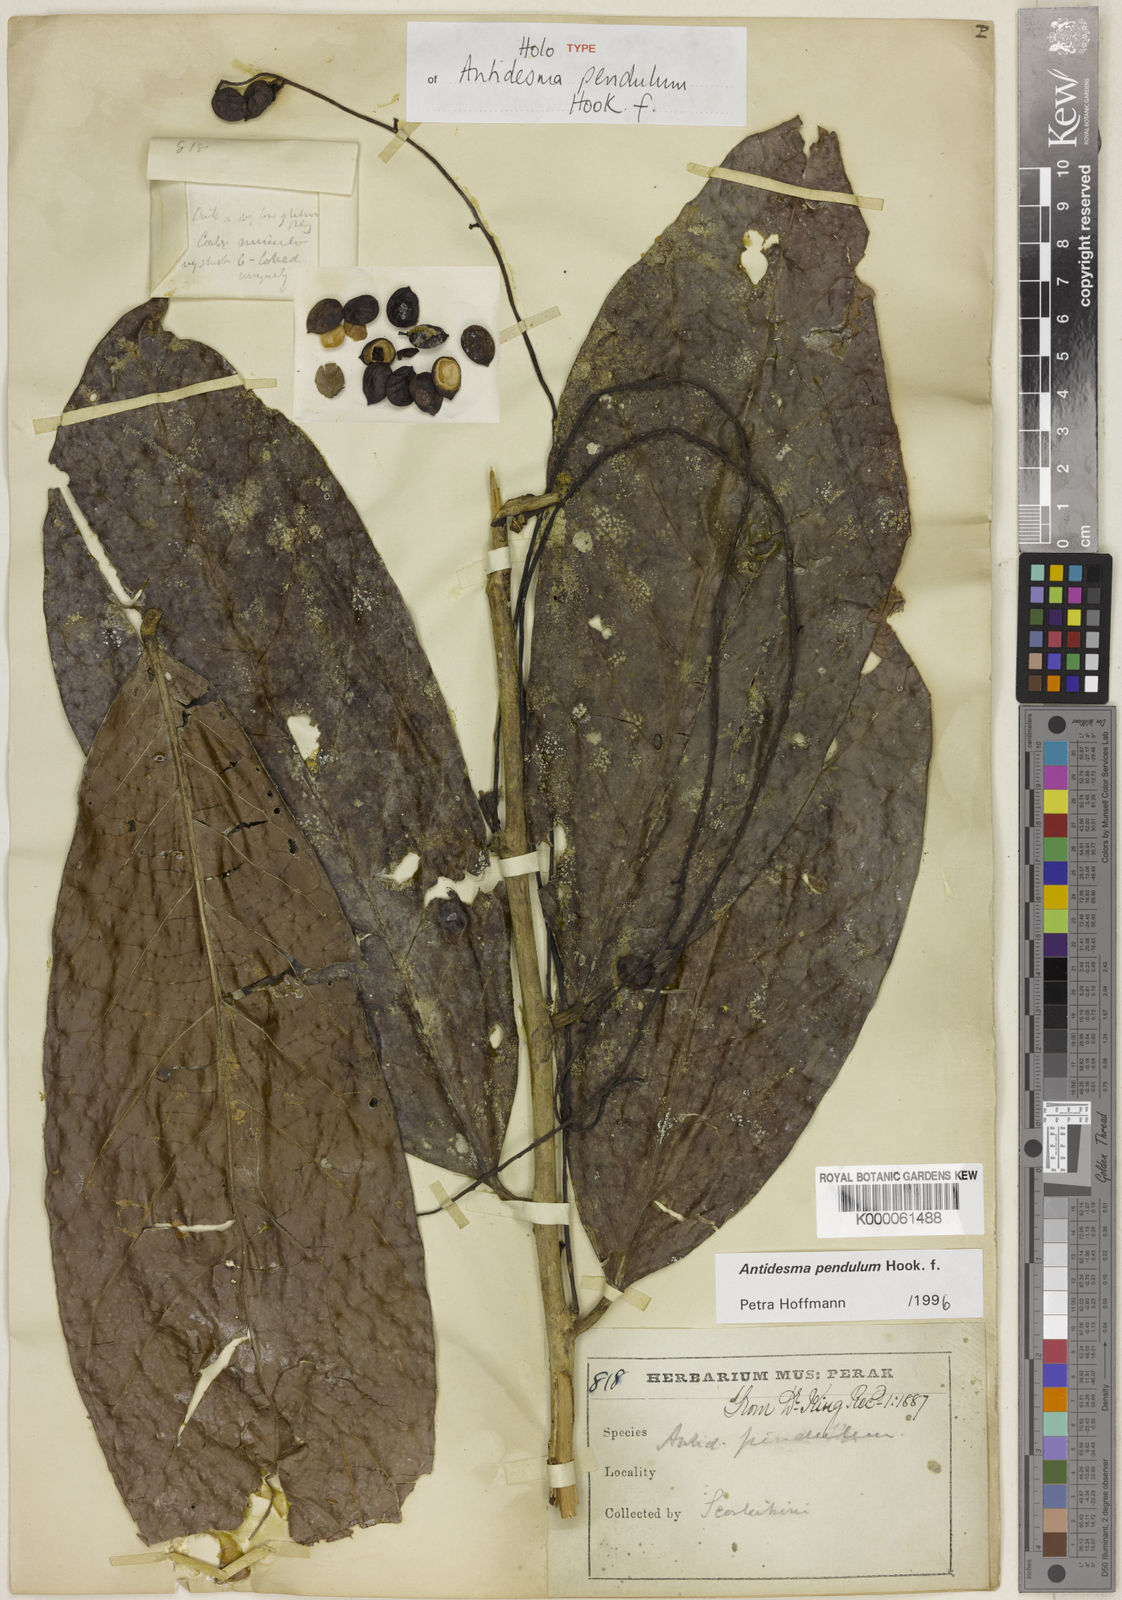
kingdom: Plantae
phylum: Tracheophyta
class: Magnoliopsida
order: Malpighiales
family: Phyllanthaceae
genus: Antidesma
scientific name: Antidesma pendulum
